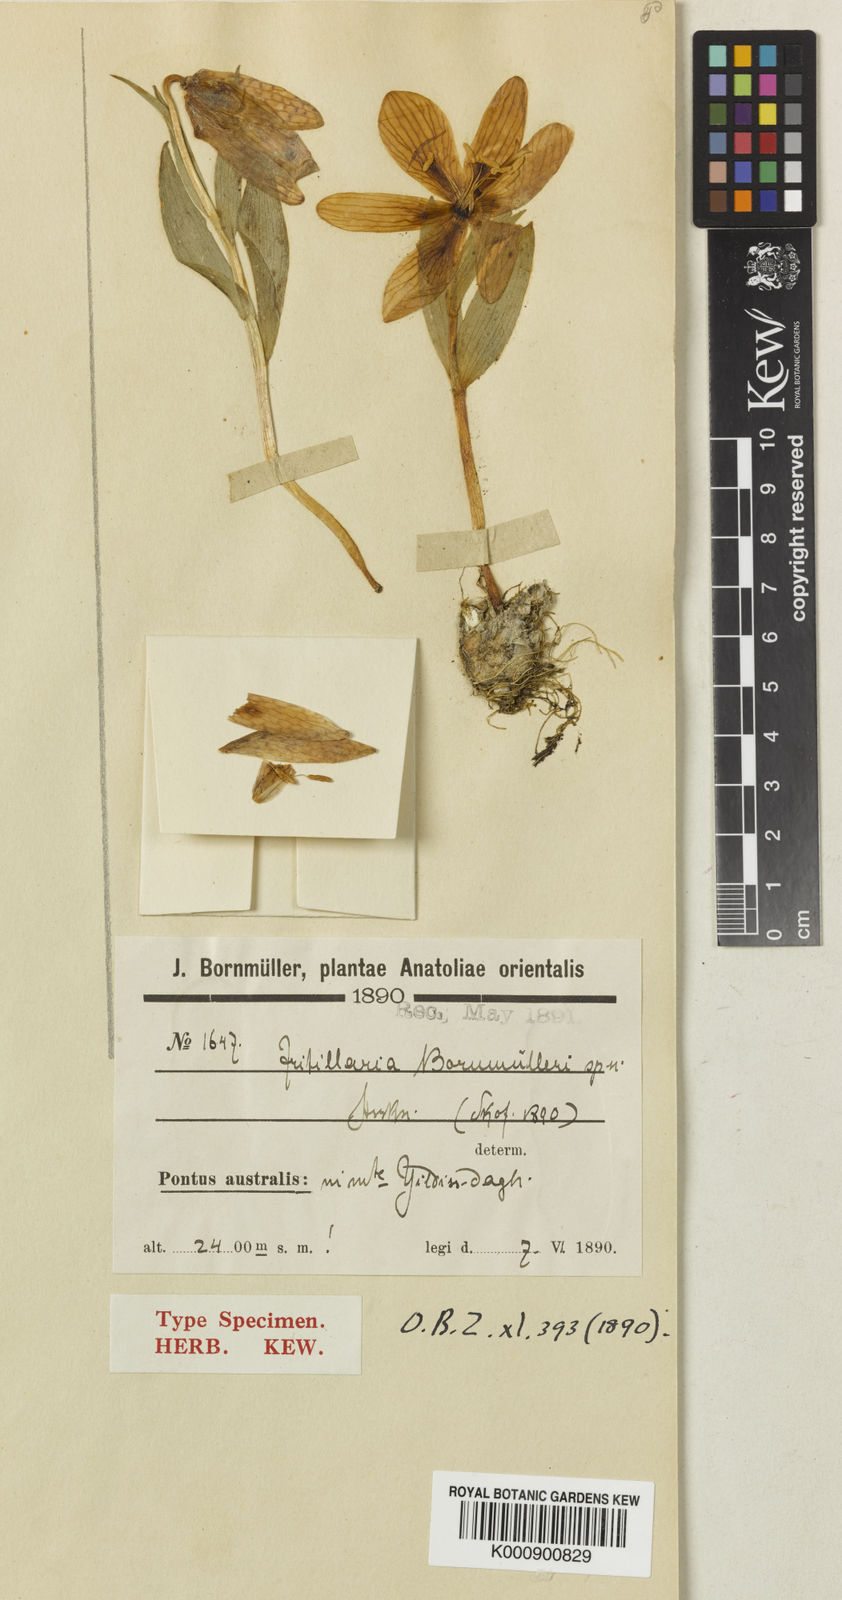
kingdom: Plantae
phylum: Tracheophyta
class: Liliopsida
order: Liliales
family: Liliaceae
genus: Fritillaria
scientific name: Fritillaria aurea
